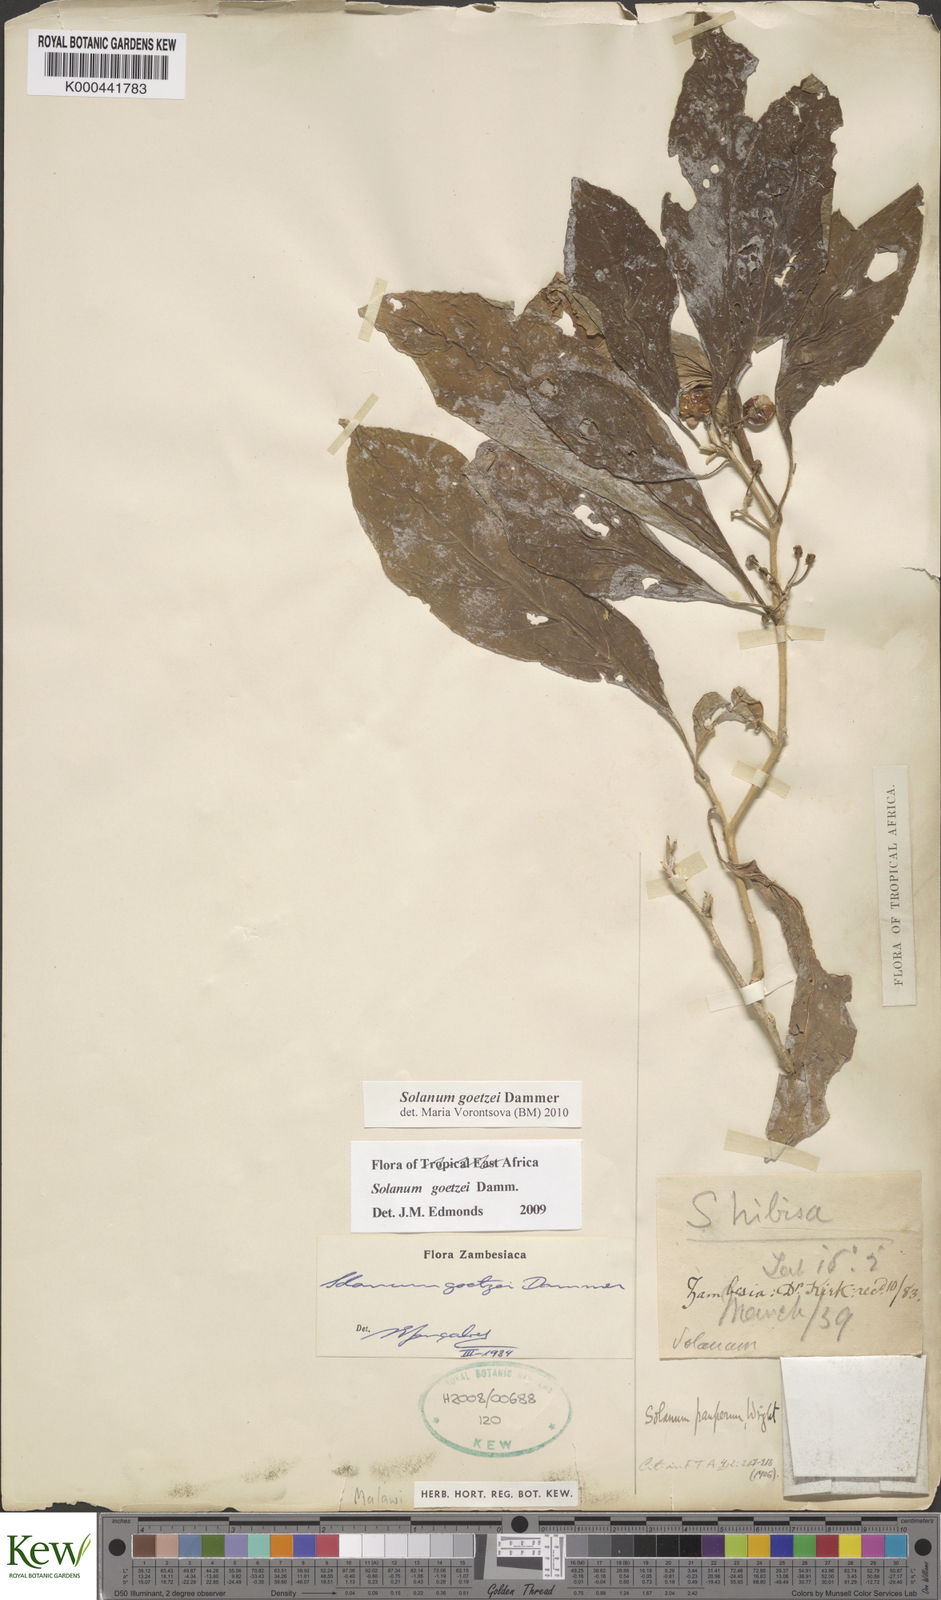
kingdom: Plantae
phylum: Tracheophyta
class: Magnoliopsida
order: Solanales
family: Solanaceae
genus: Solanum
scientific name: Solanum goetzei
